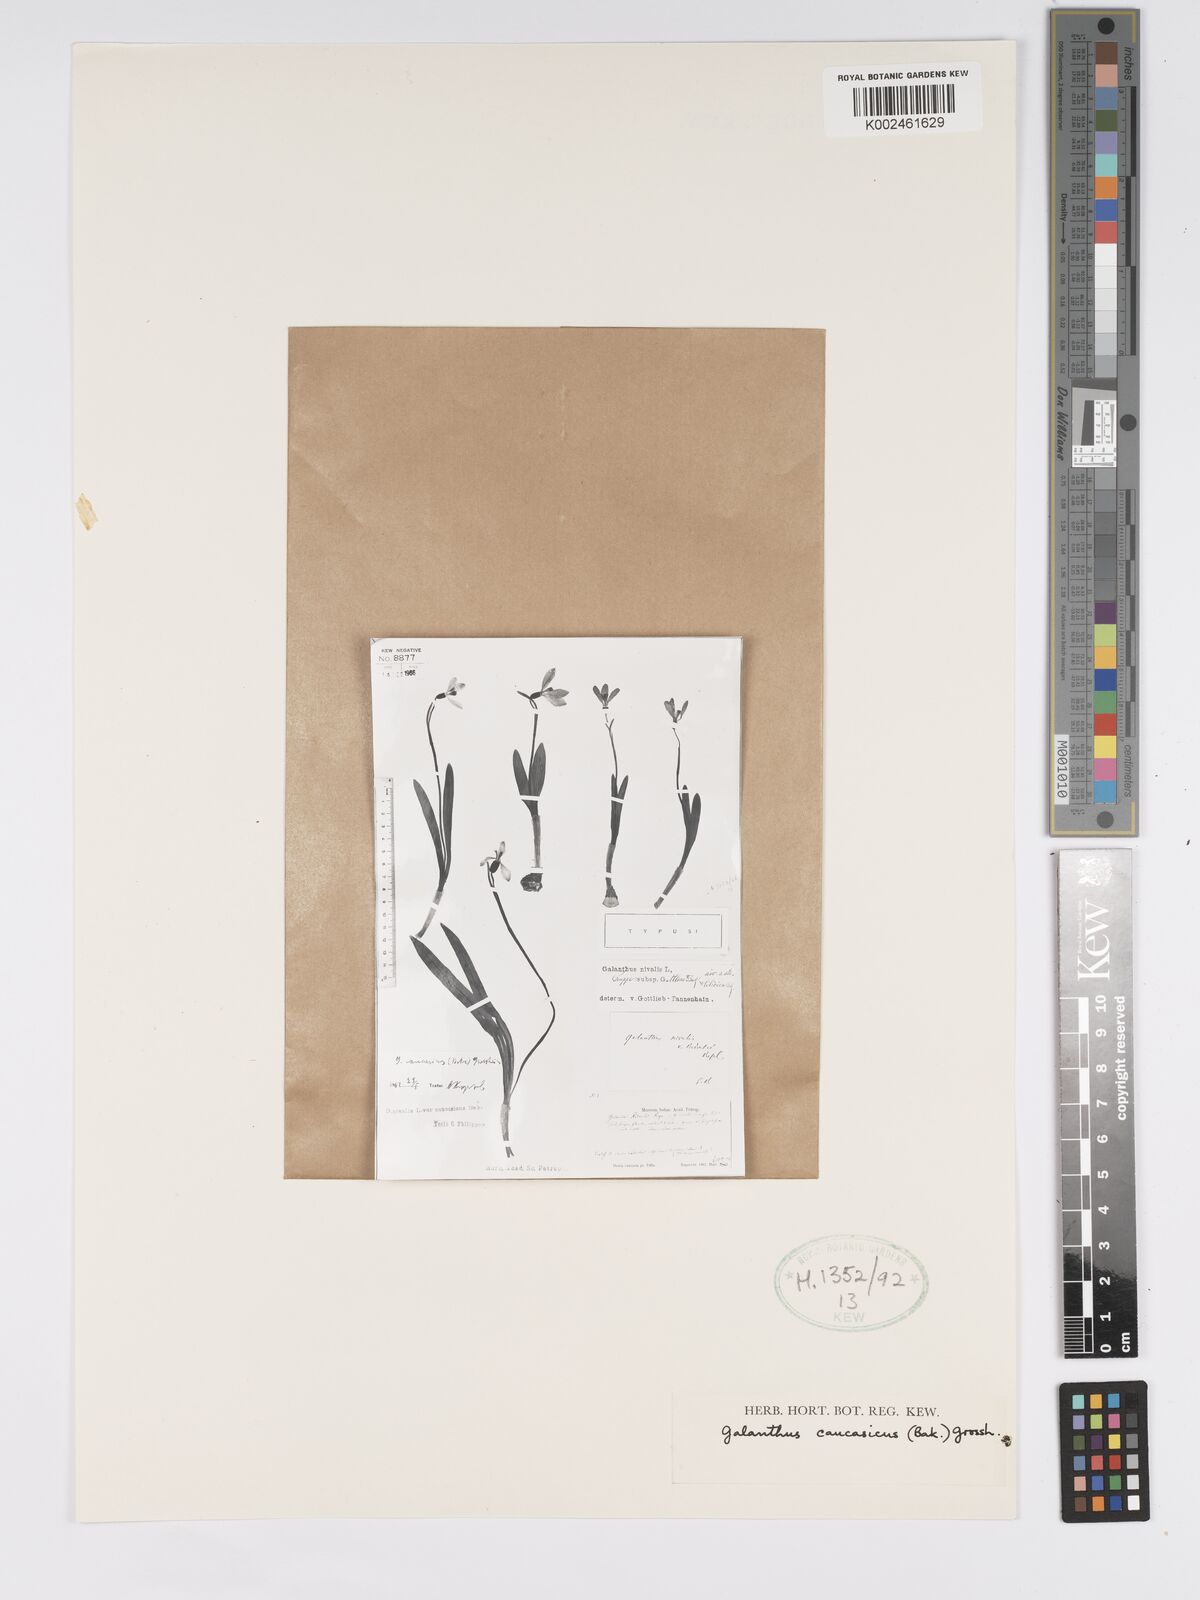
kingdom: Plantae
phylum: Tracheophyta
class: Liliopsida
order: Asparagales
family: Amaryllidaceae
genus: Galanthus
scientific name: Galanthus alpinus
